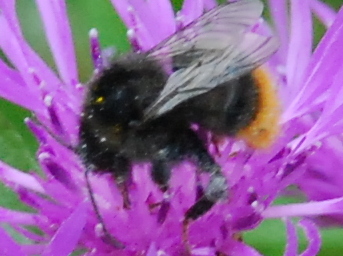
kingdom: Animalia
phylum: Arthropoda
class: Insecta
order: Hymenoptera
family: Apidae
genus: Bombus
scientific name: Bombus lapidarius
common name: Large red-tailed humble-bee
